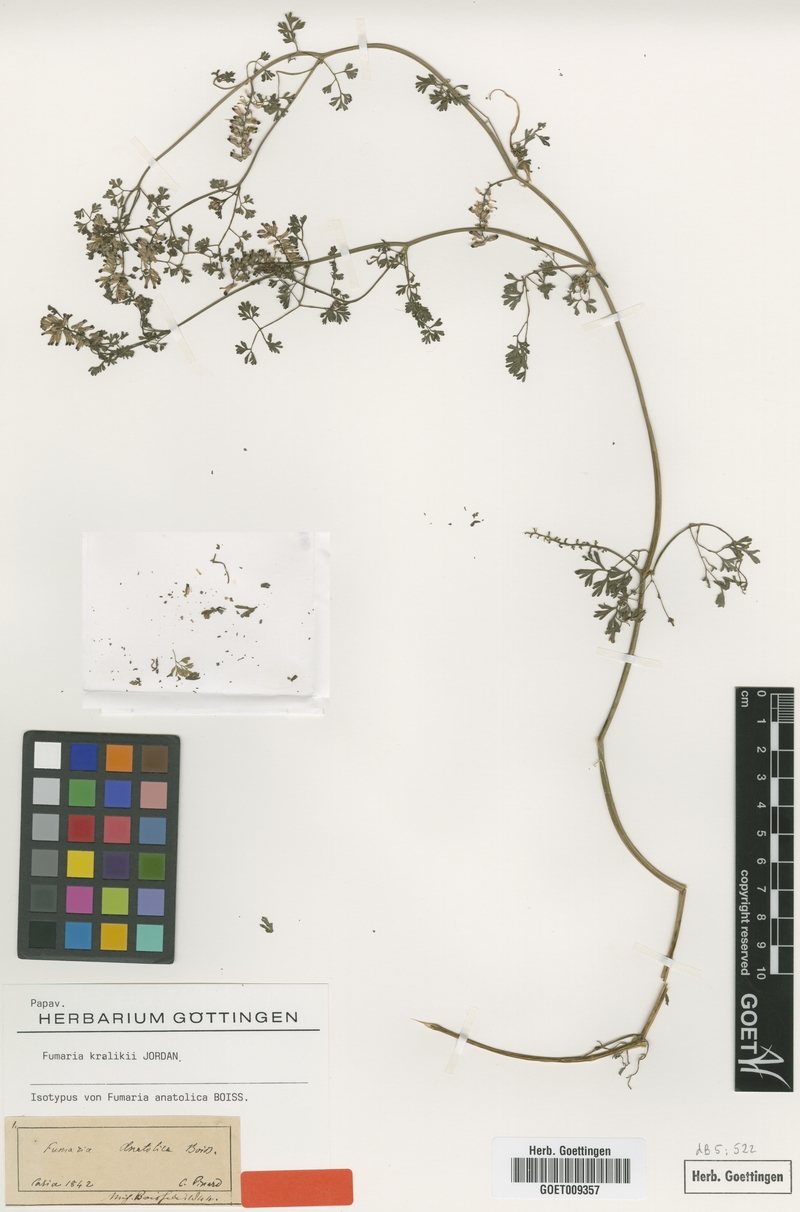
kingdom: Plantae
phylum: Tracheophyta
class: Magnoliopsida
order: Ranunculales
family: Papaveraceae
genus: Fumaria
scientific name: Fumaria kralikii
